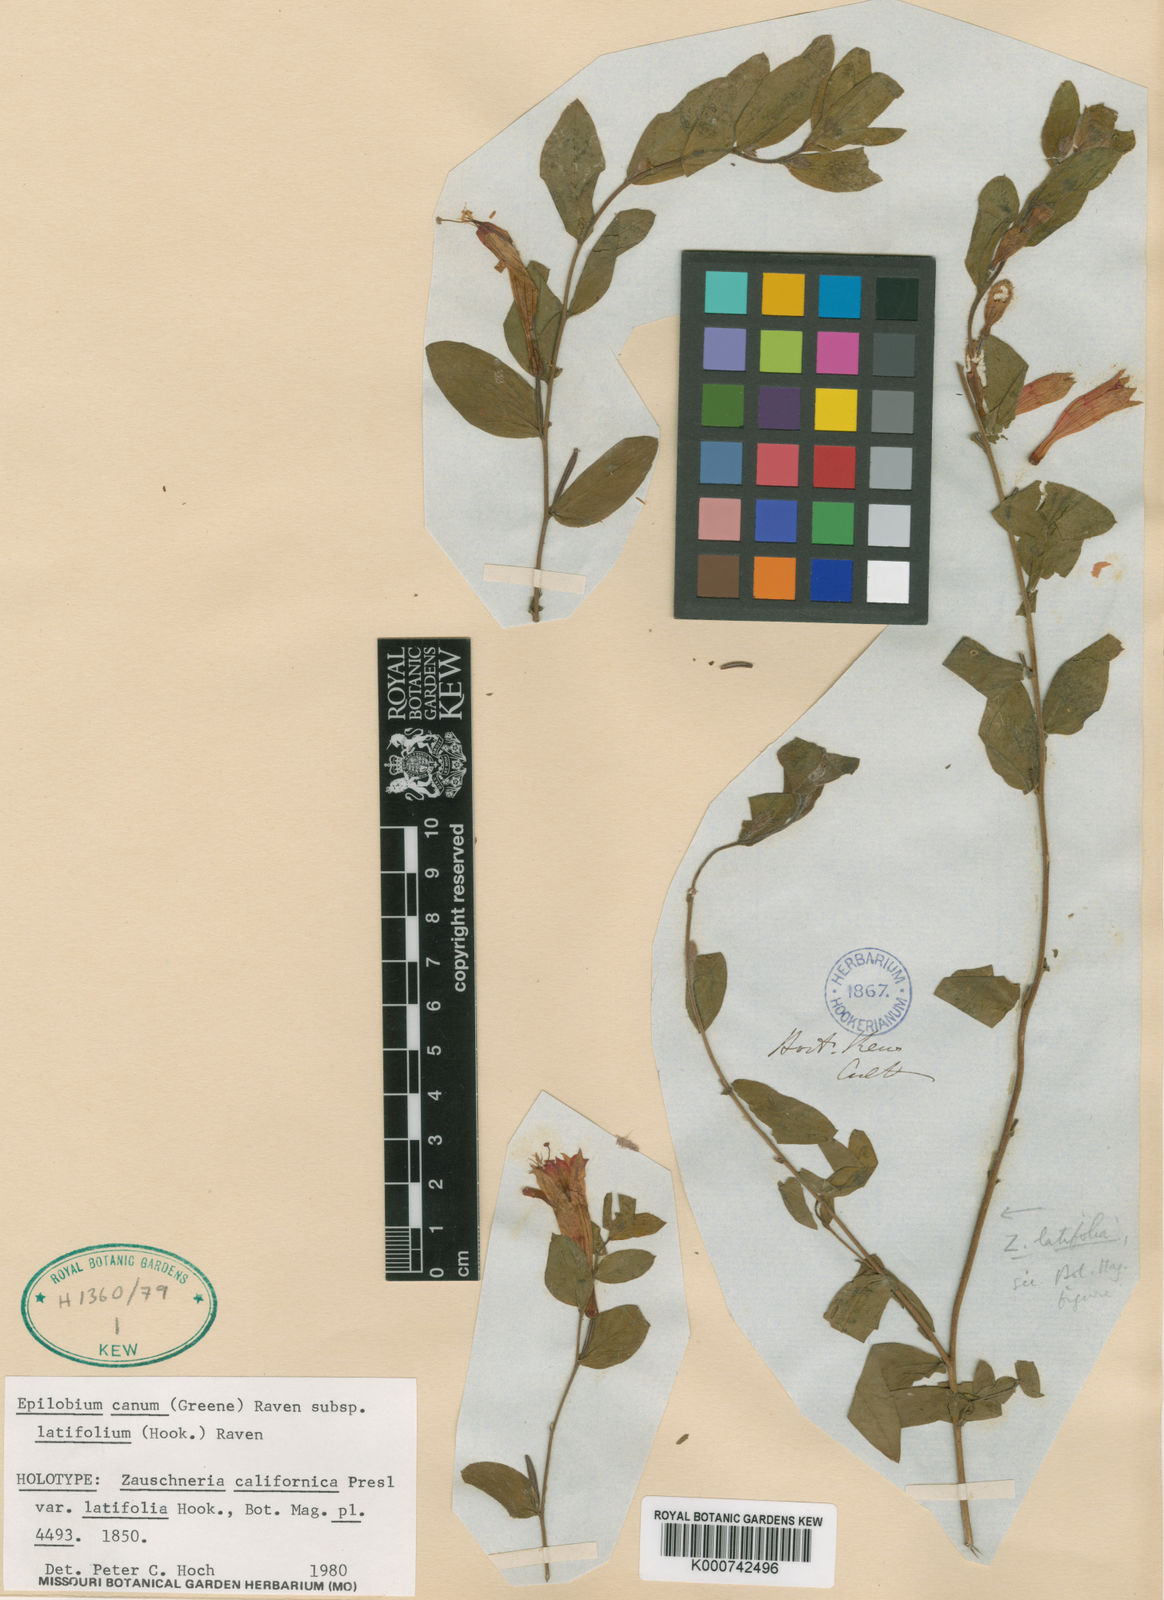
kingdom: Plantae
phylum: Tracheophyta
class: Magnoliopsida
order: Myrtales
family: Onagraceae
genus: Chamaenerion
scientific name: Chamaenerion latifolium
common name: Dwarf fireweed
